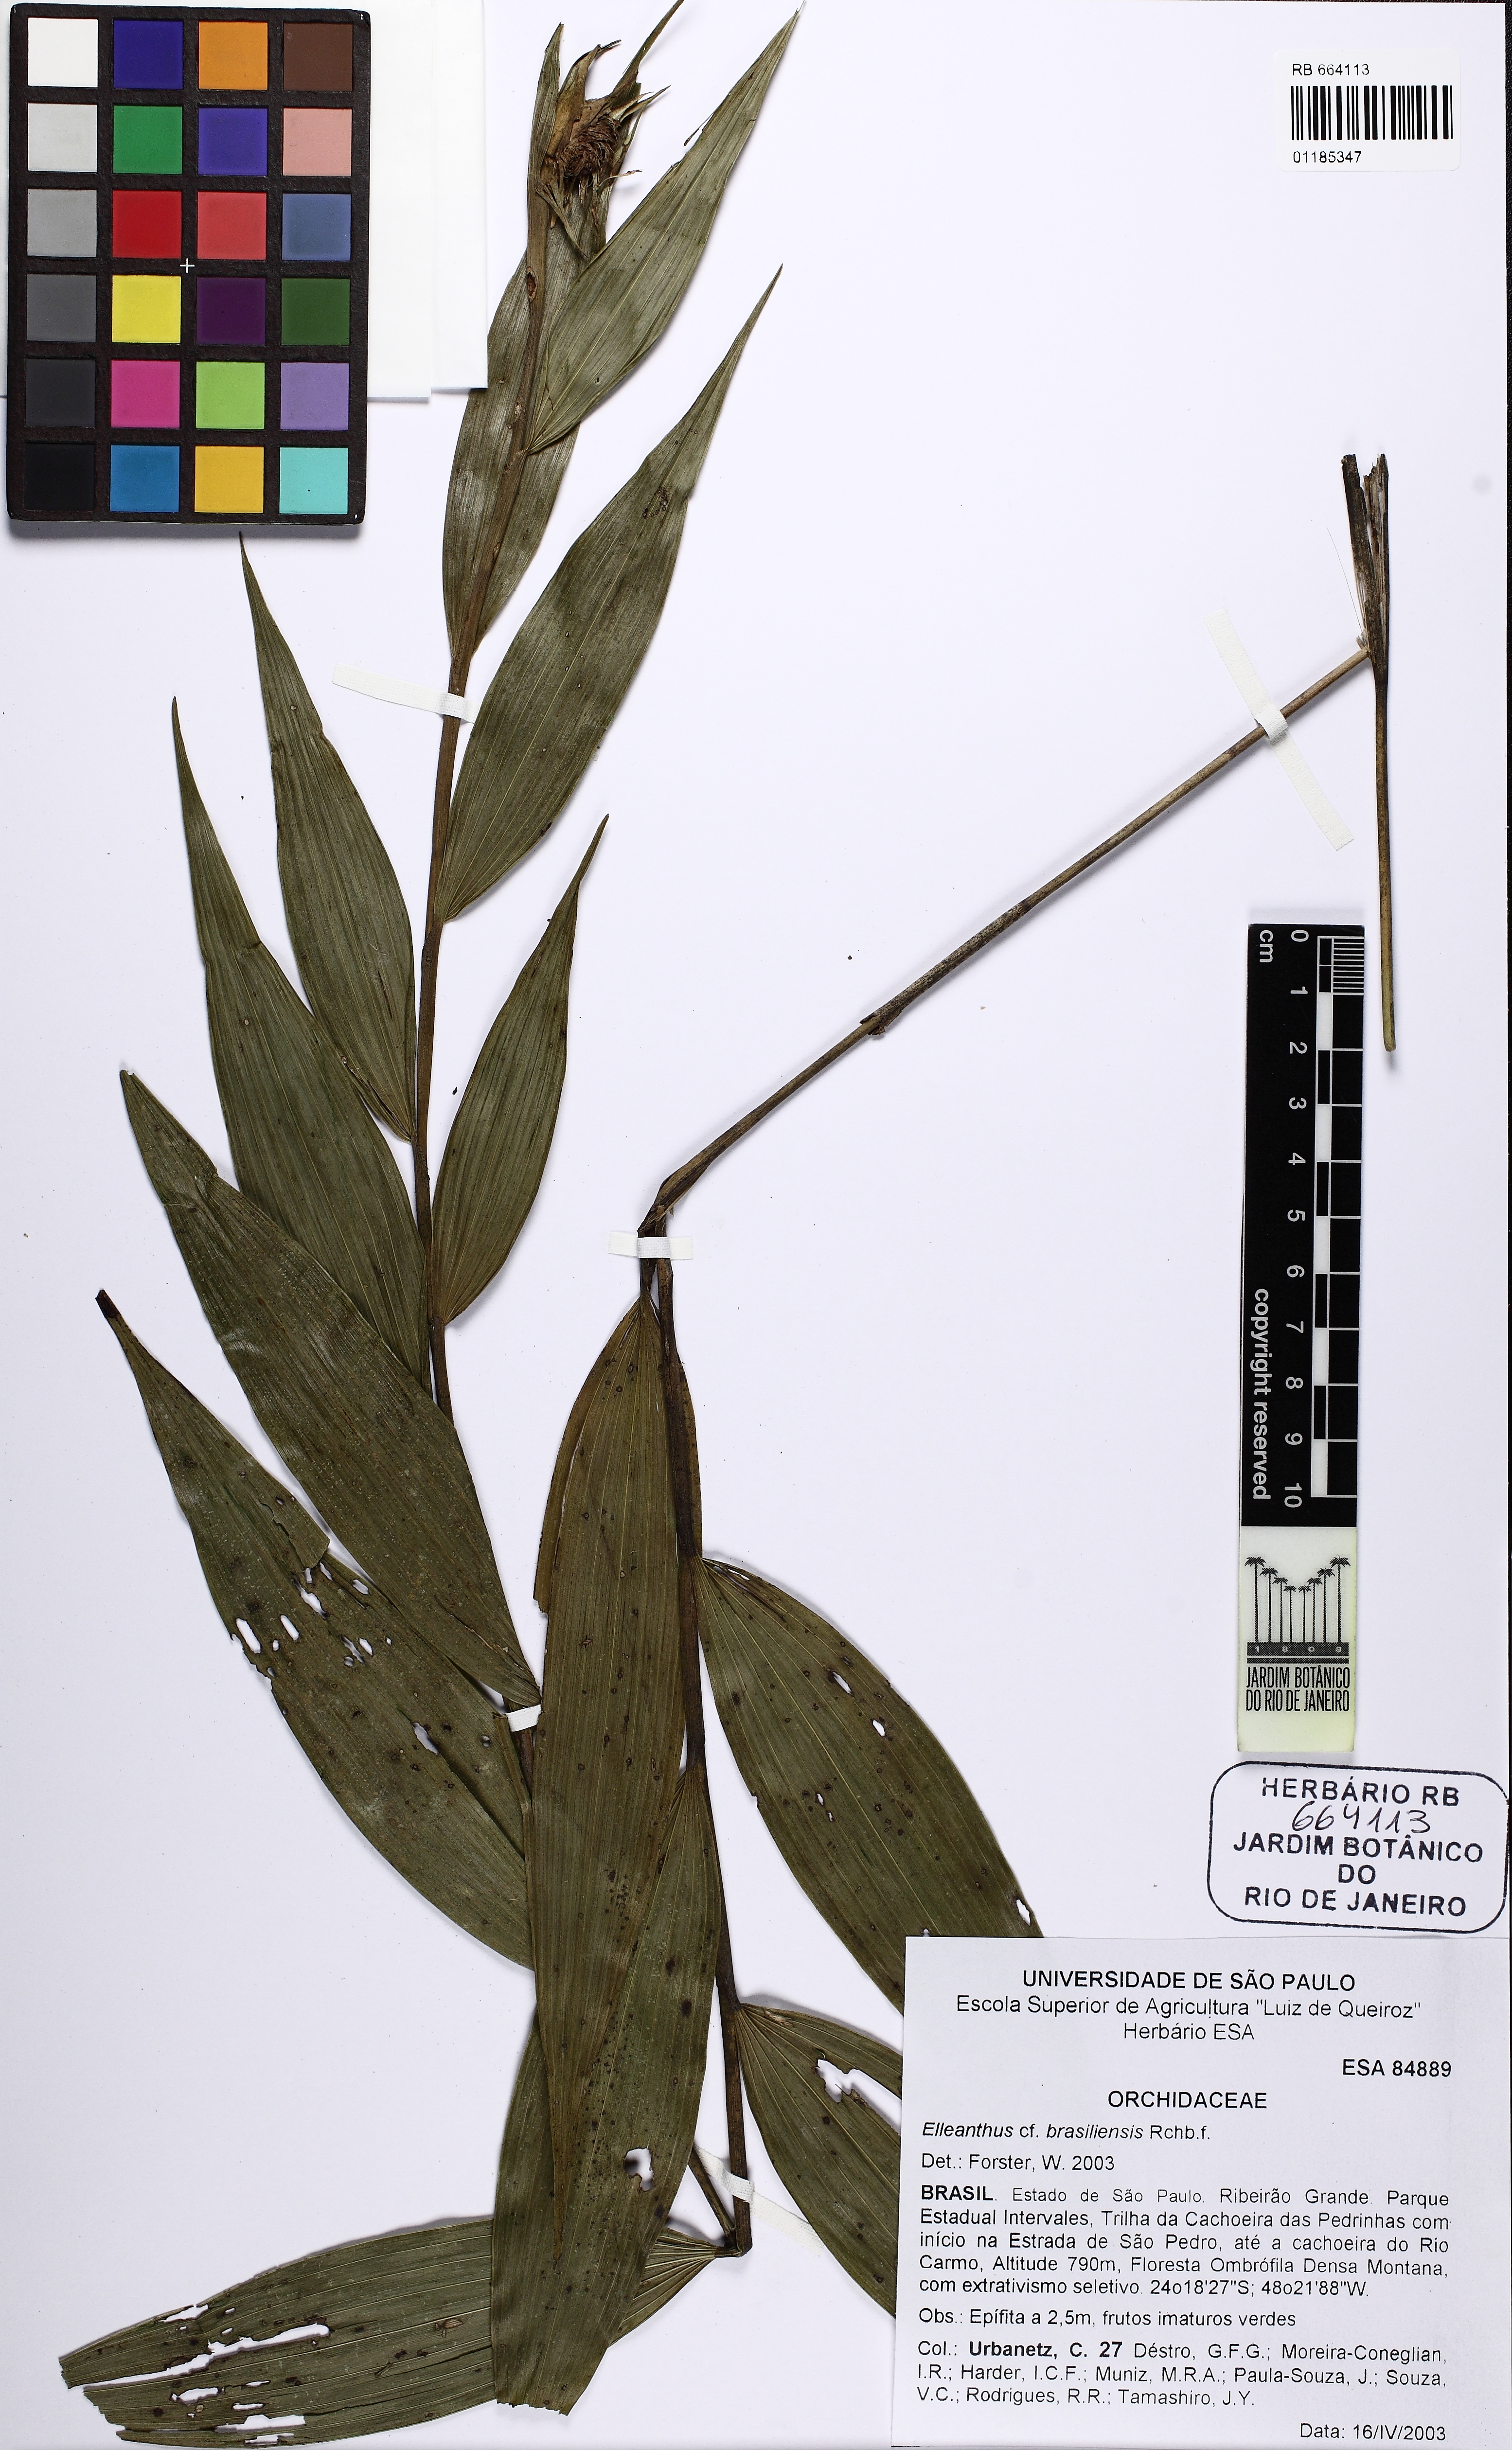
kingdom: Plantae
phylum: Tracheophyta
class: Liliopsida
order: Asparagales
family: Orchidaceae
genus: Elleanthus
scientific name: Elleanthus brasiliensis
